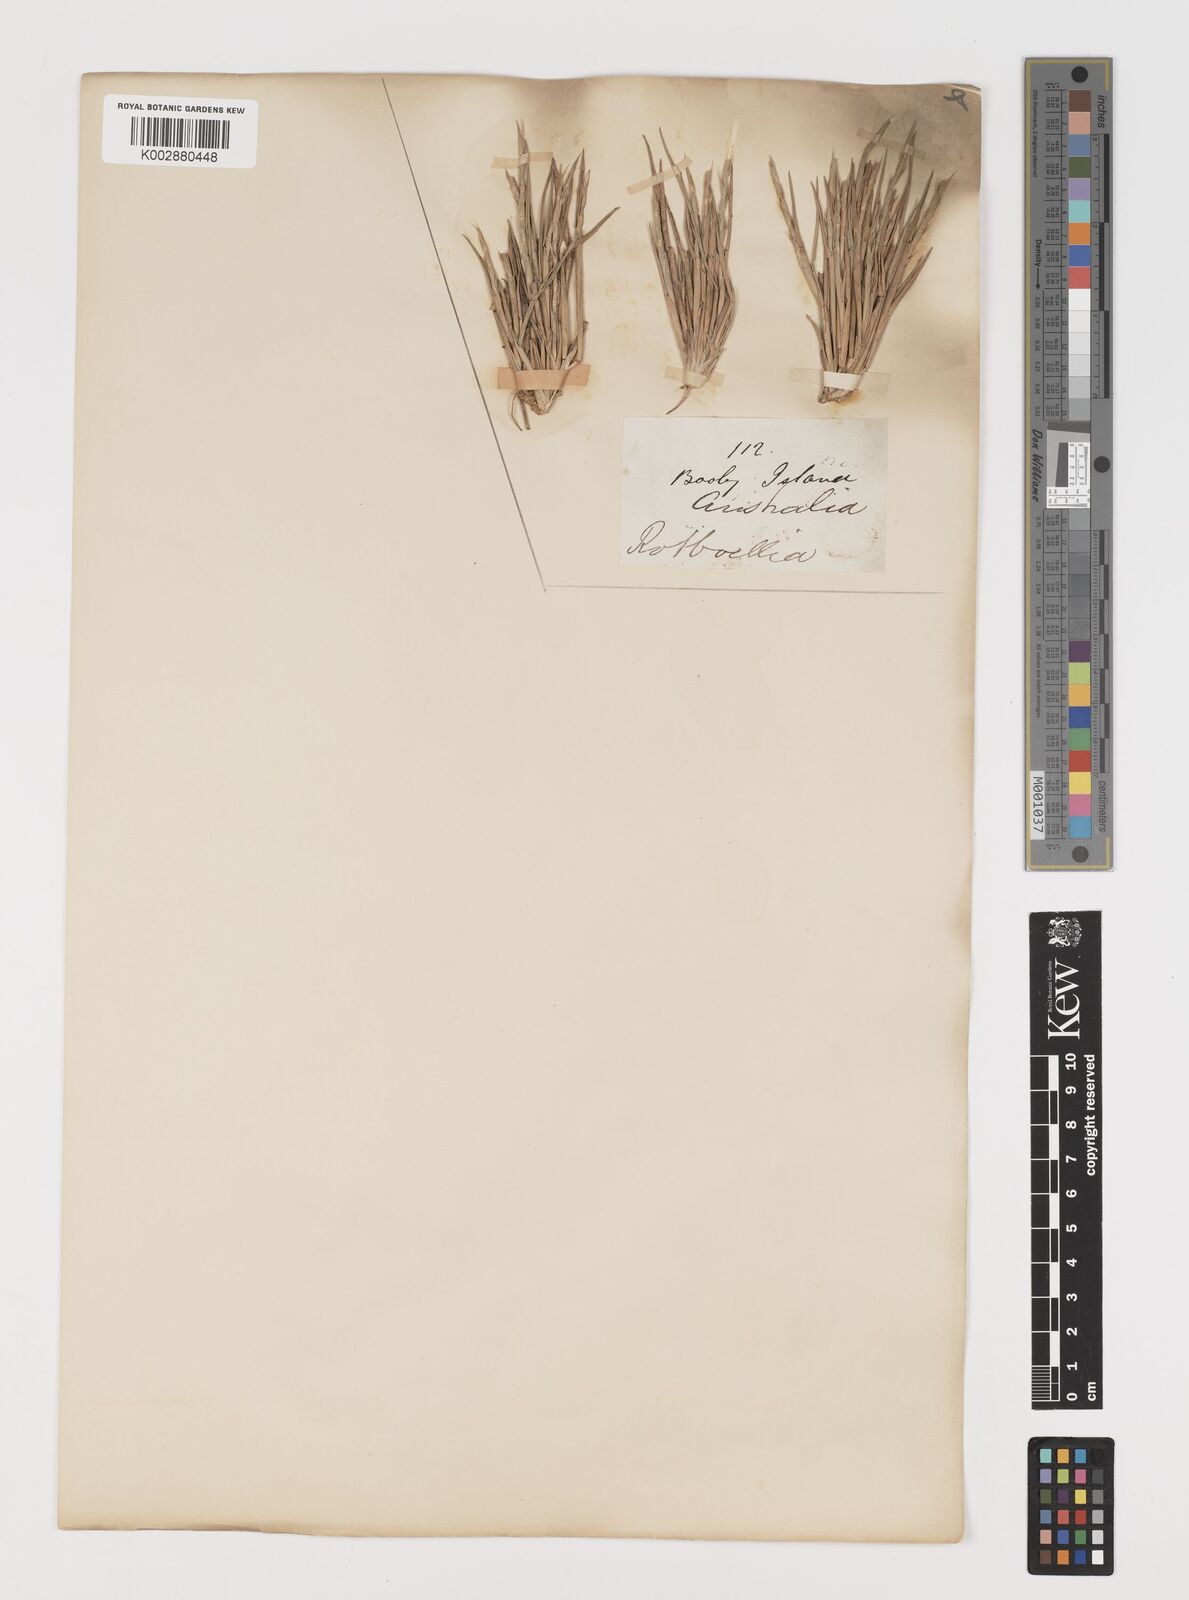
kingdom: Plantae
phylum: Tracheophyta
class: Liliopsida
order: Poales
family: Poaceae
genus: Lepturus
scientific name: Lepturus repens
